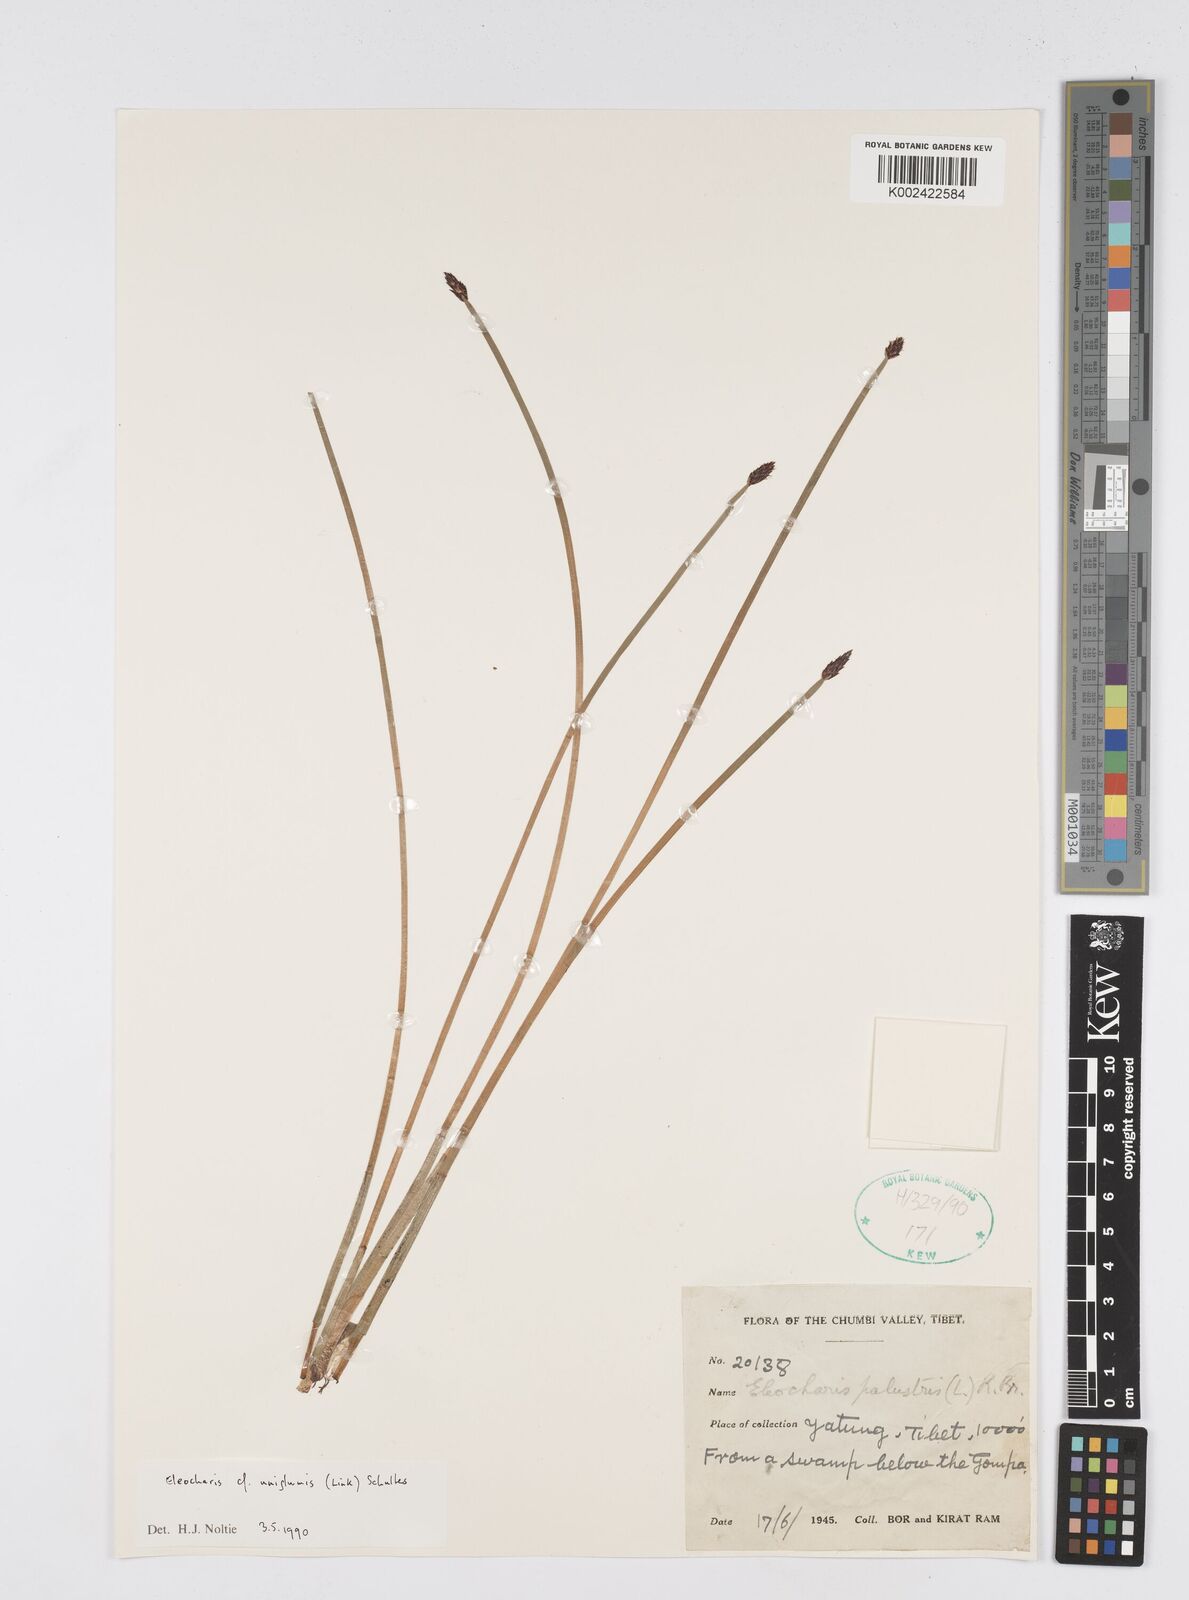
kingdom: Plantae
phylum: Tracheophyta
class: Liliopsida
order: Poales
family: Cyperaceae
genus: Eleocharis
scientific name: Eleocharis uniglumis
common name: Slender spike-rush
